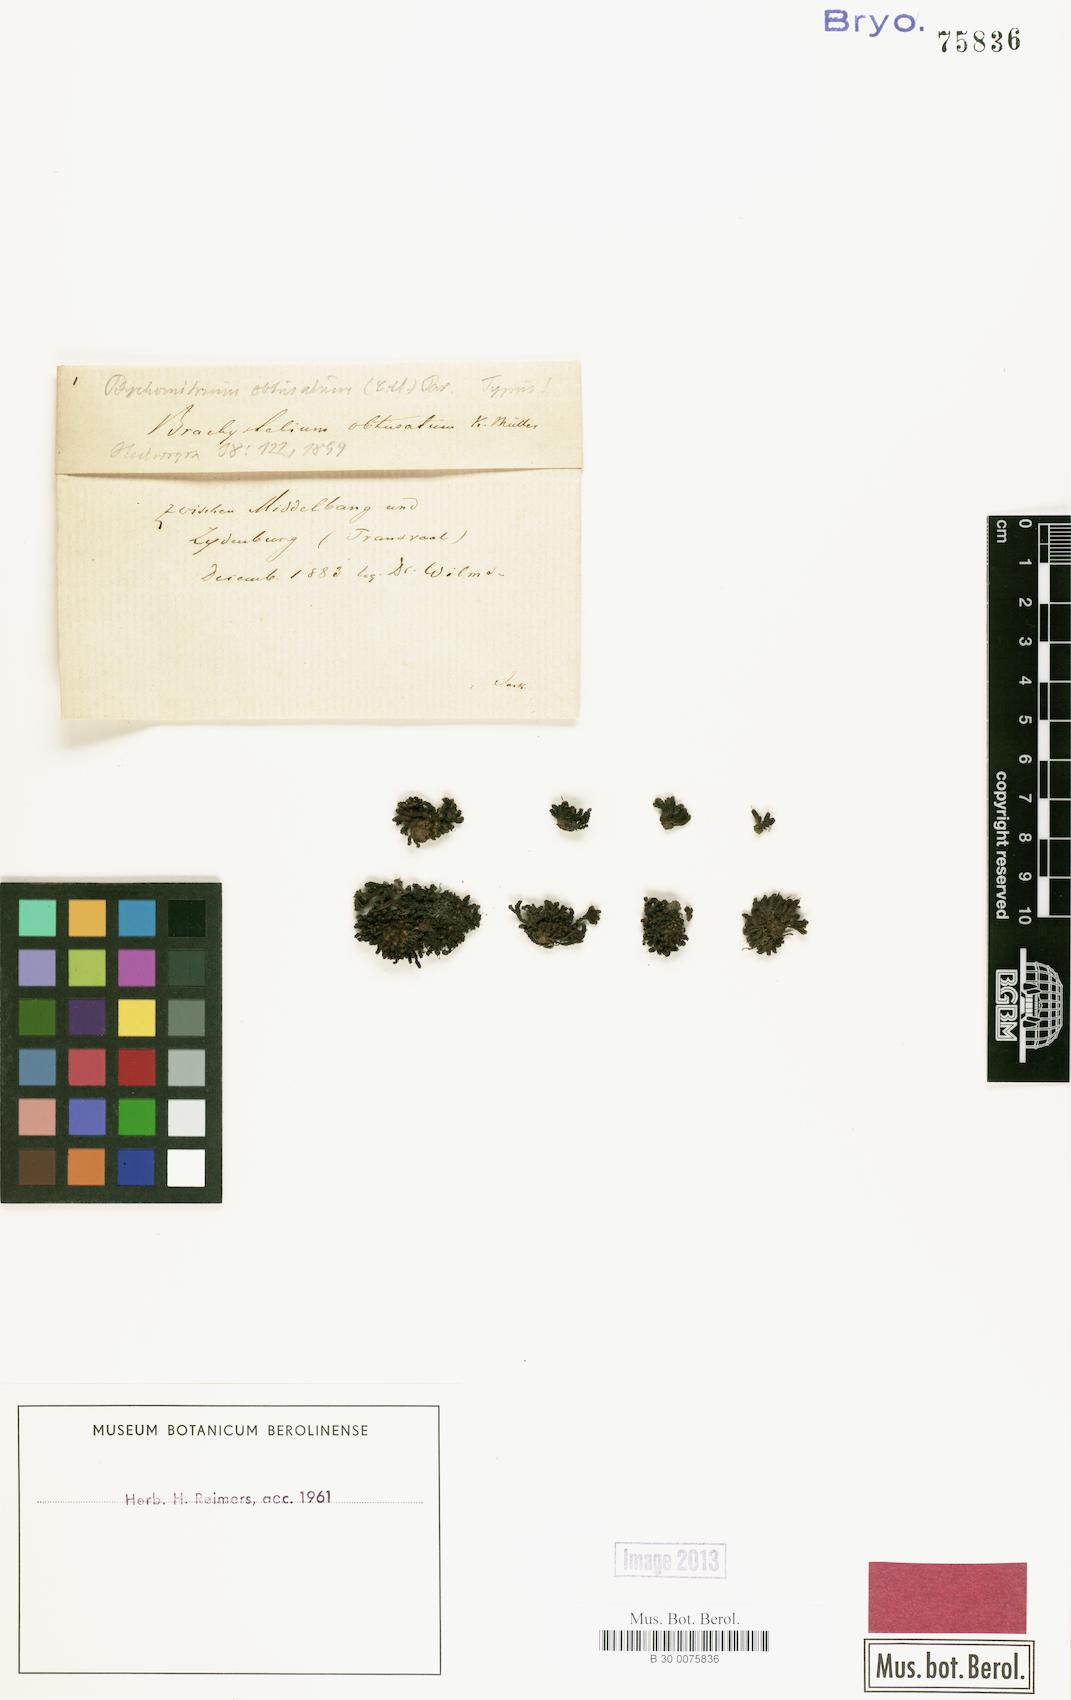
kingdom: Plantae
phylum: Bryophyta
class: Bryopsida
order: Grimmiales
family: Ptychomitriaceae
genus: Ptychomitrium
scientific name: Ptychomitrium cucullatifolium
